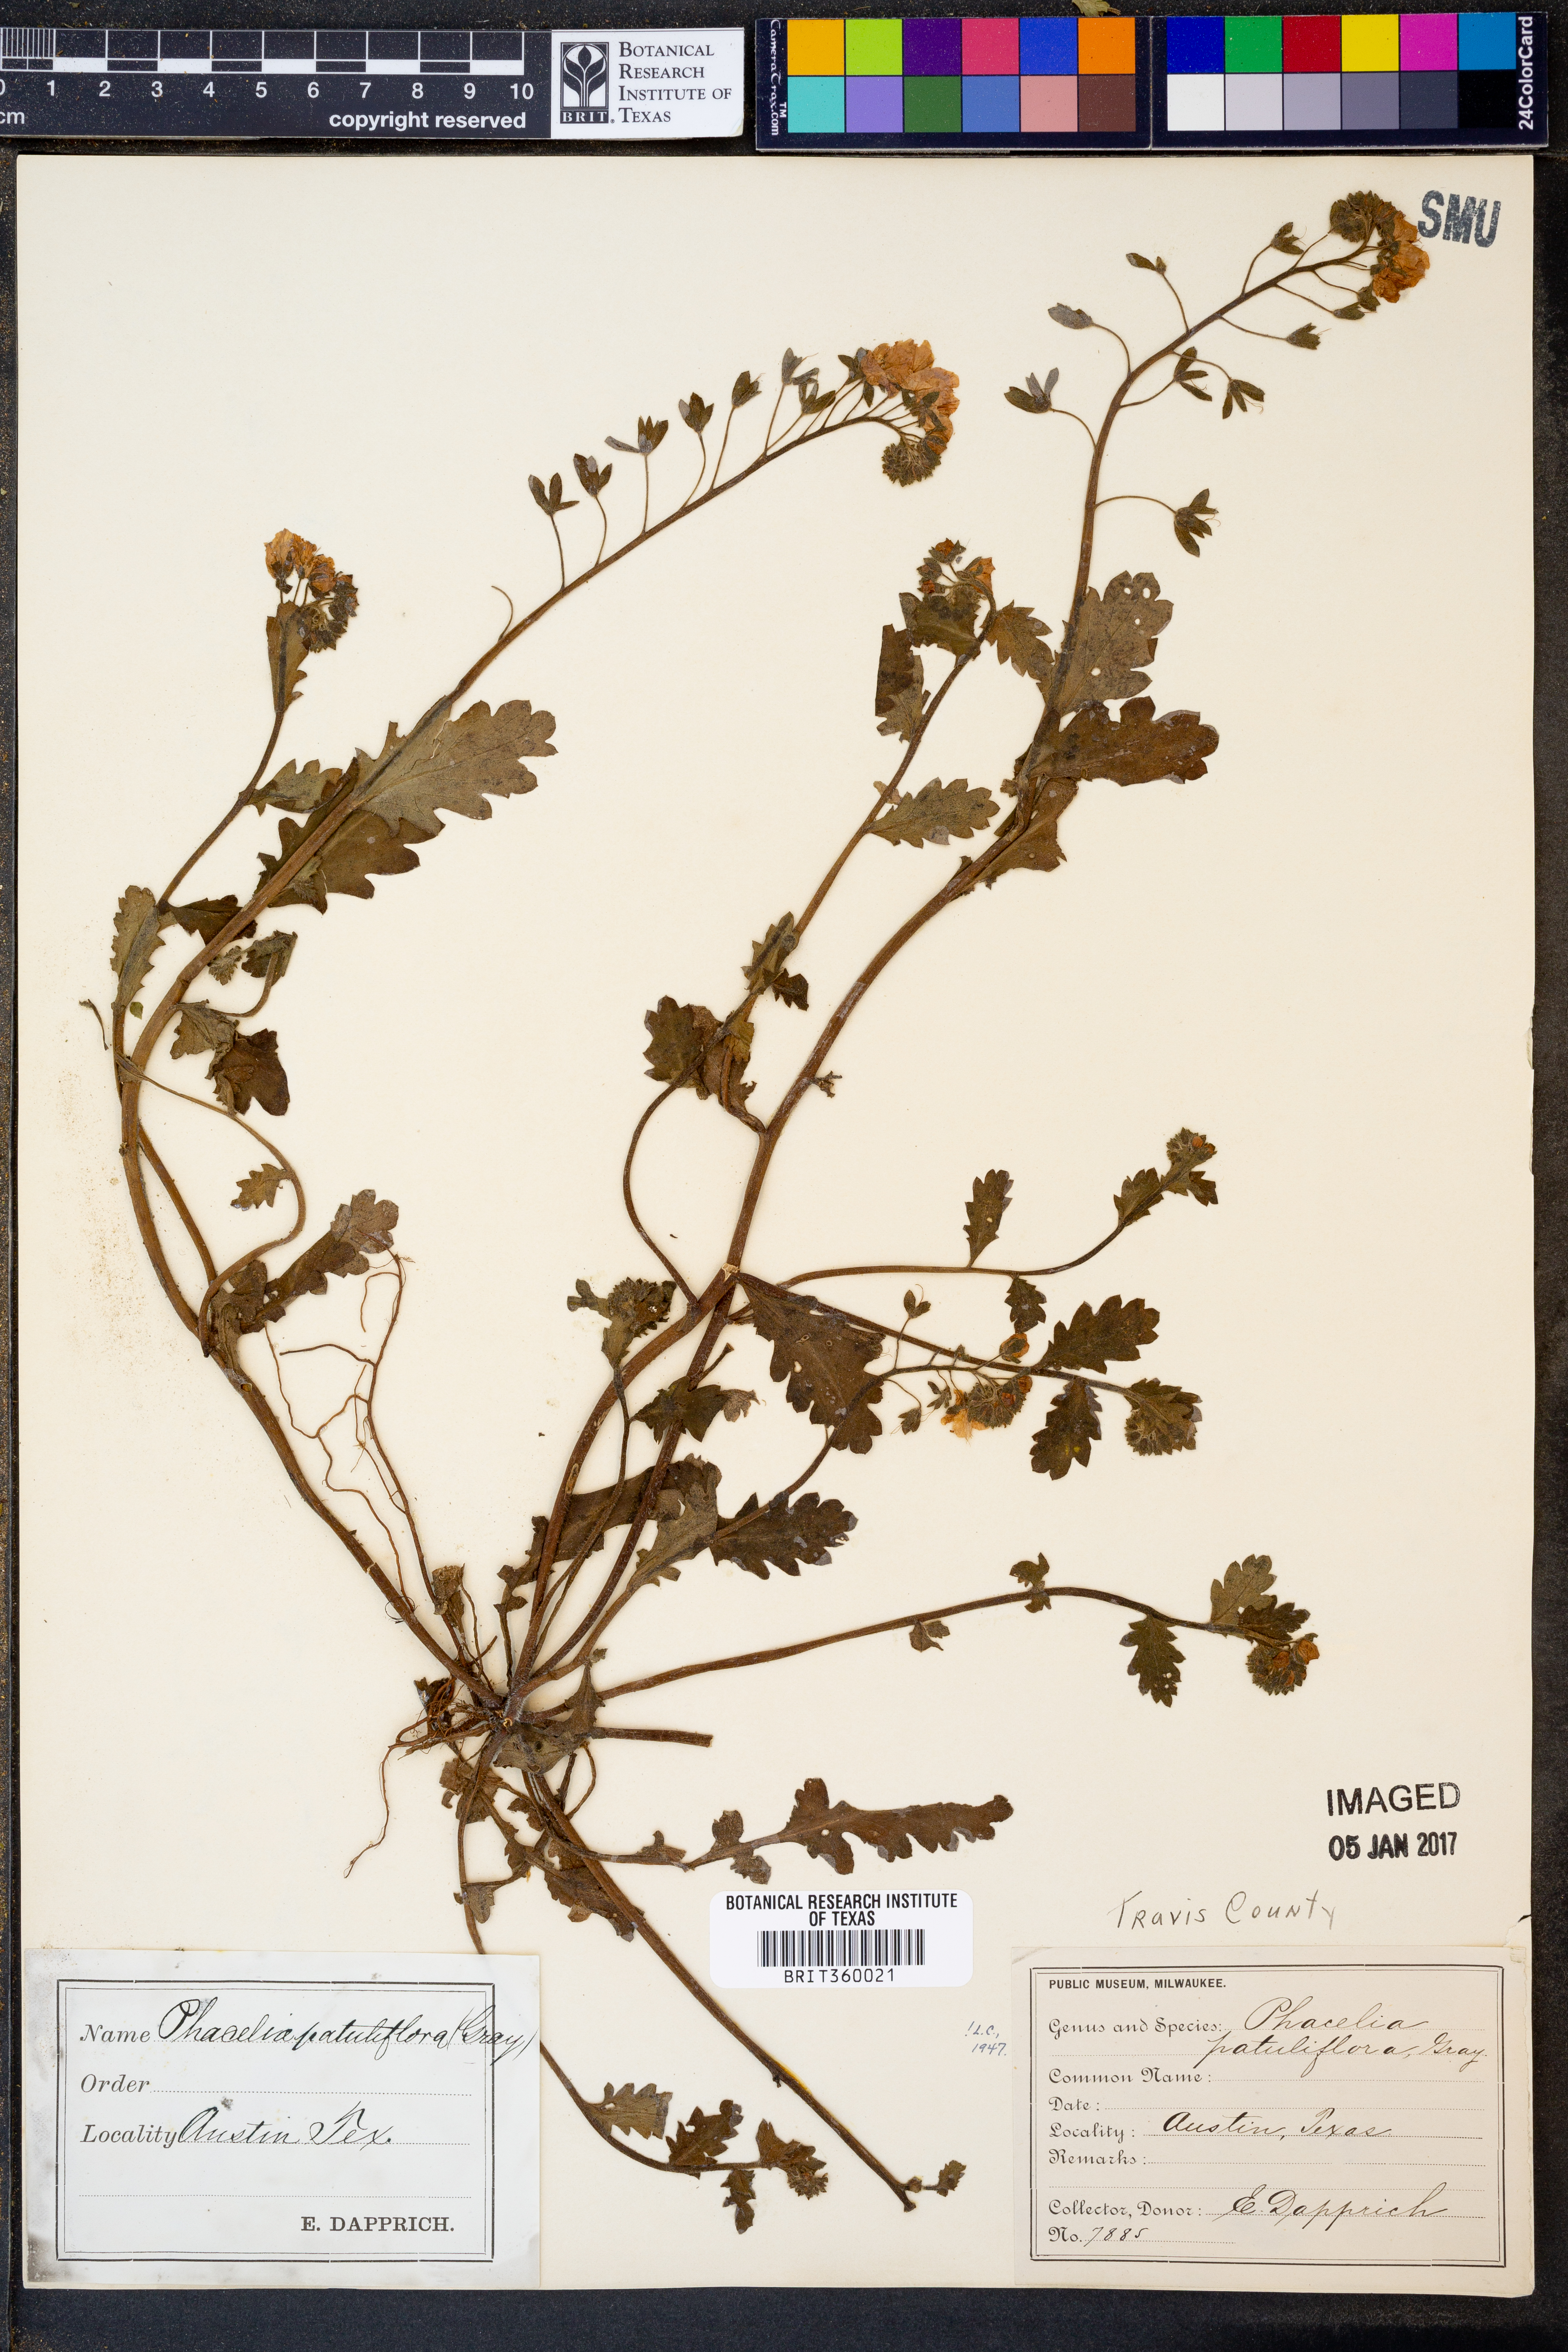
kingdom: Plantae
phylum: Tracheophyta
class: Magnoliopsida
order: Boraginales
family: Hydrophyllaceae
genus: Phacelia
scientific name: Phacelia patuliflora
